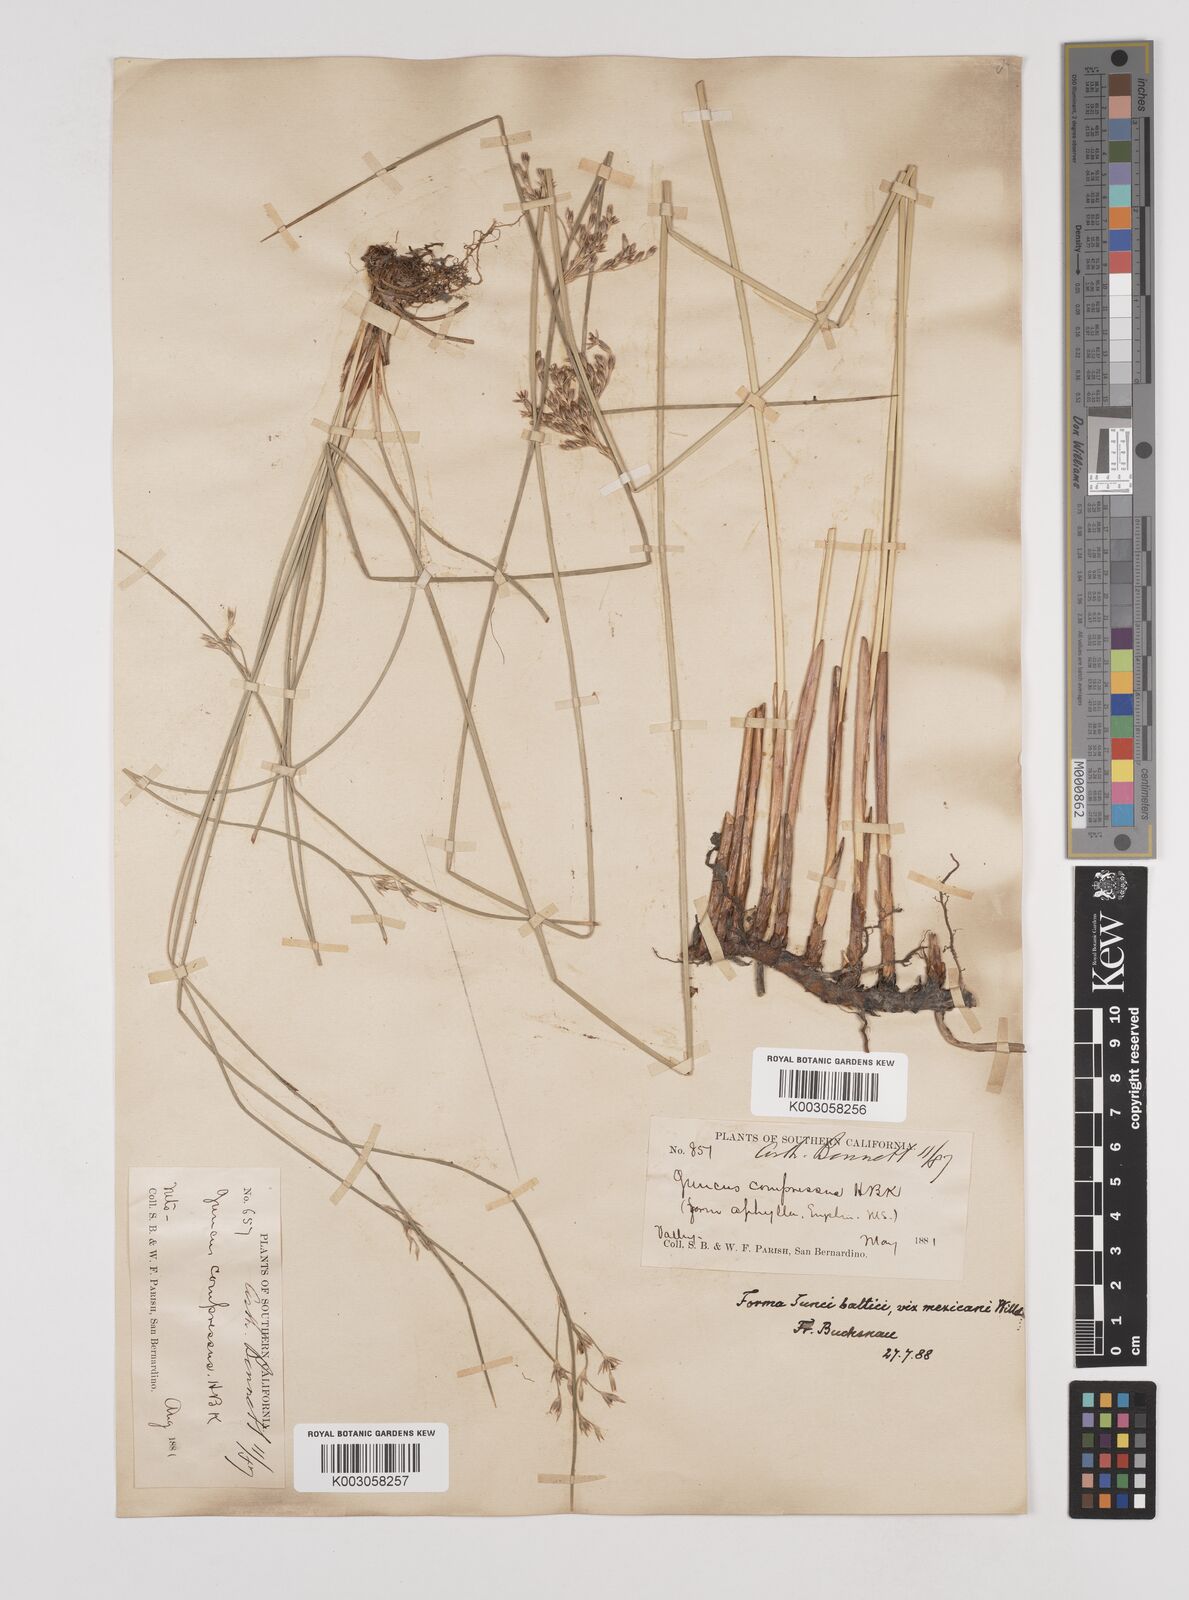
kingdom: Plantae
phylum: Tracheophyta
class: Liliopsida
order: Poales
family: Juncaceae
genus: Juncus
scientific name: Juncus
